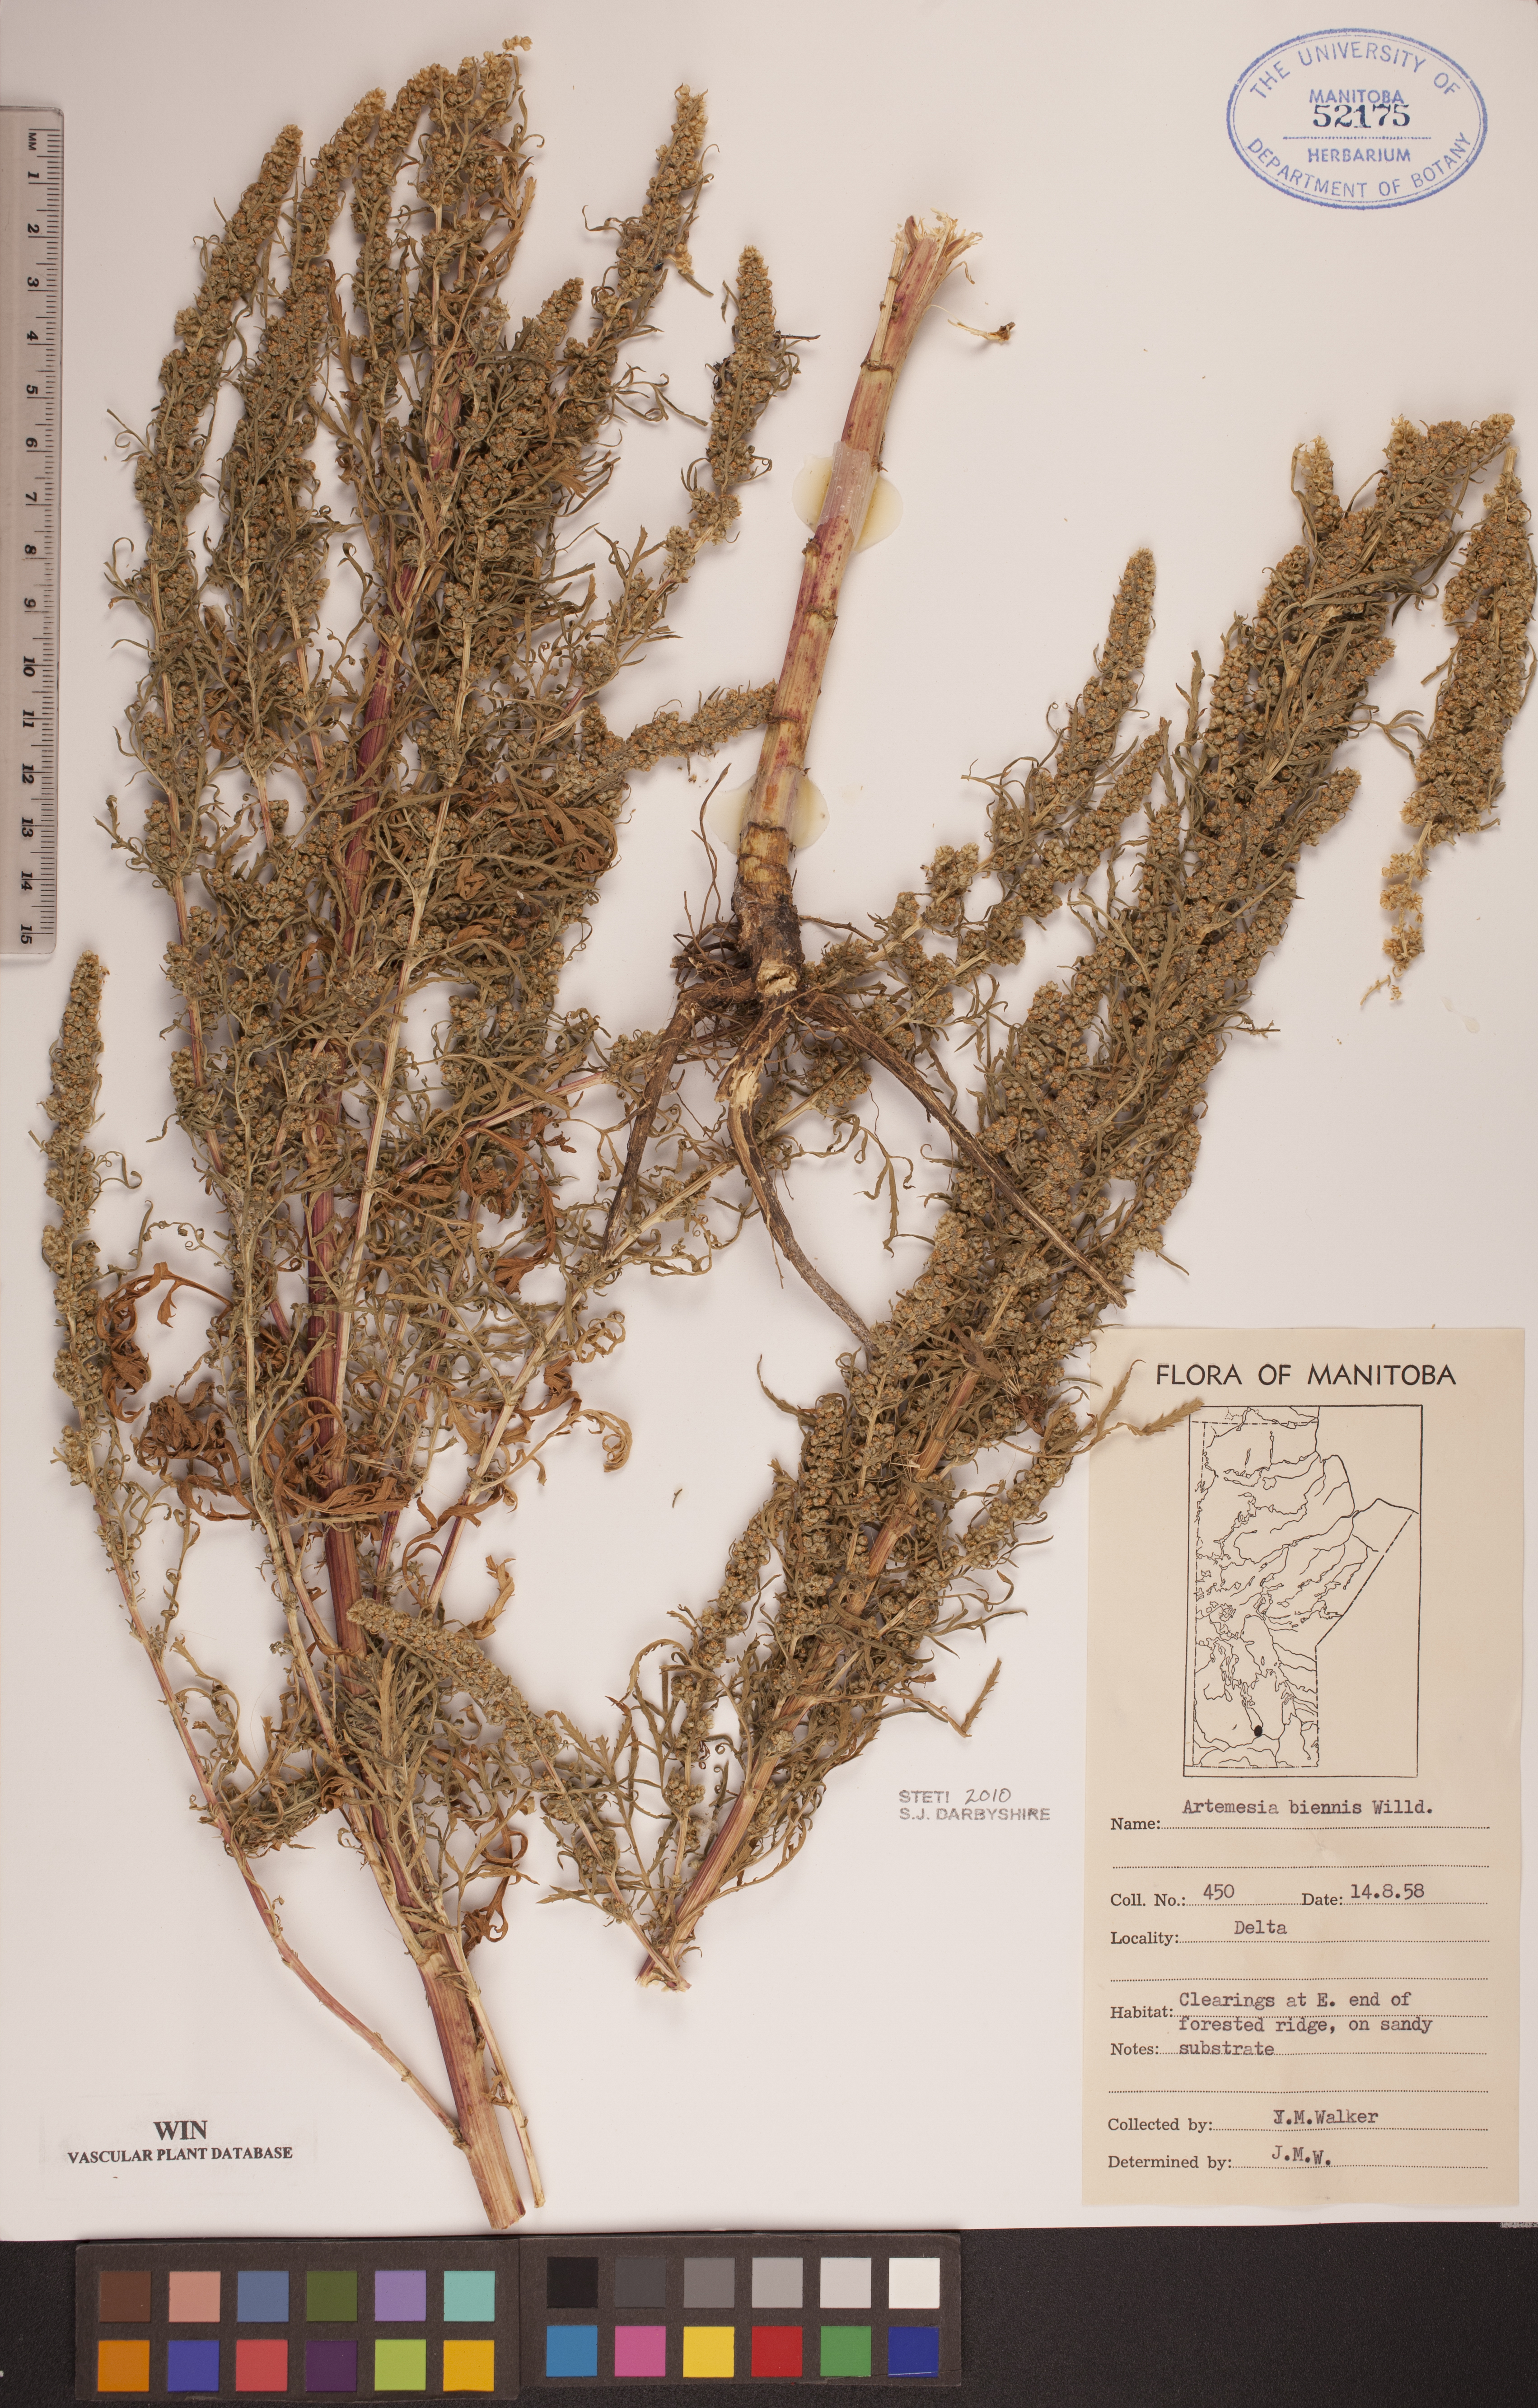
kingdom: Plantae
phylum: Tracheophyta
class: Magnoliopsida
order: Asterales
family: Asteraceae
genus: Artemisia
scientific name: Artemisia biennis
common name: Biennial wormwood
